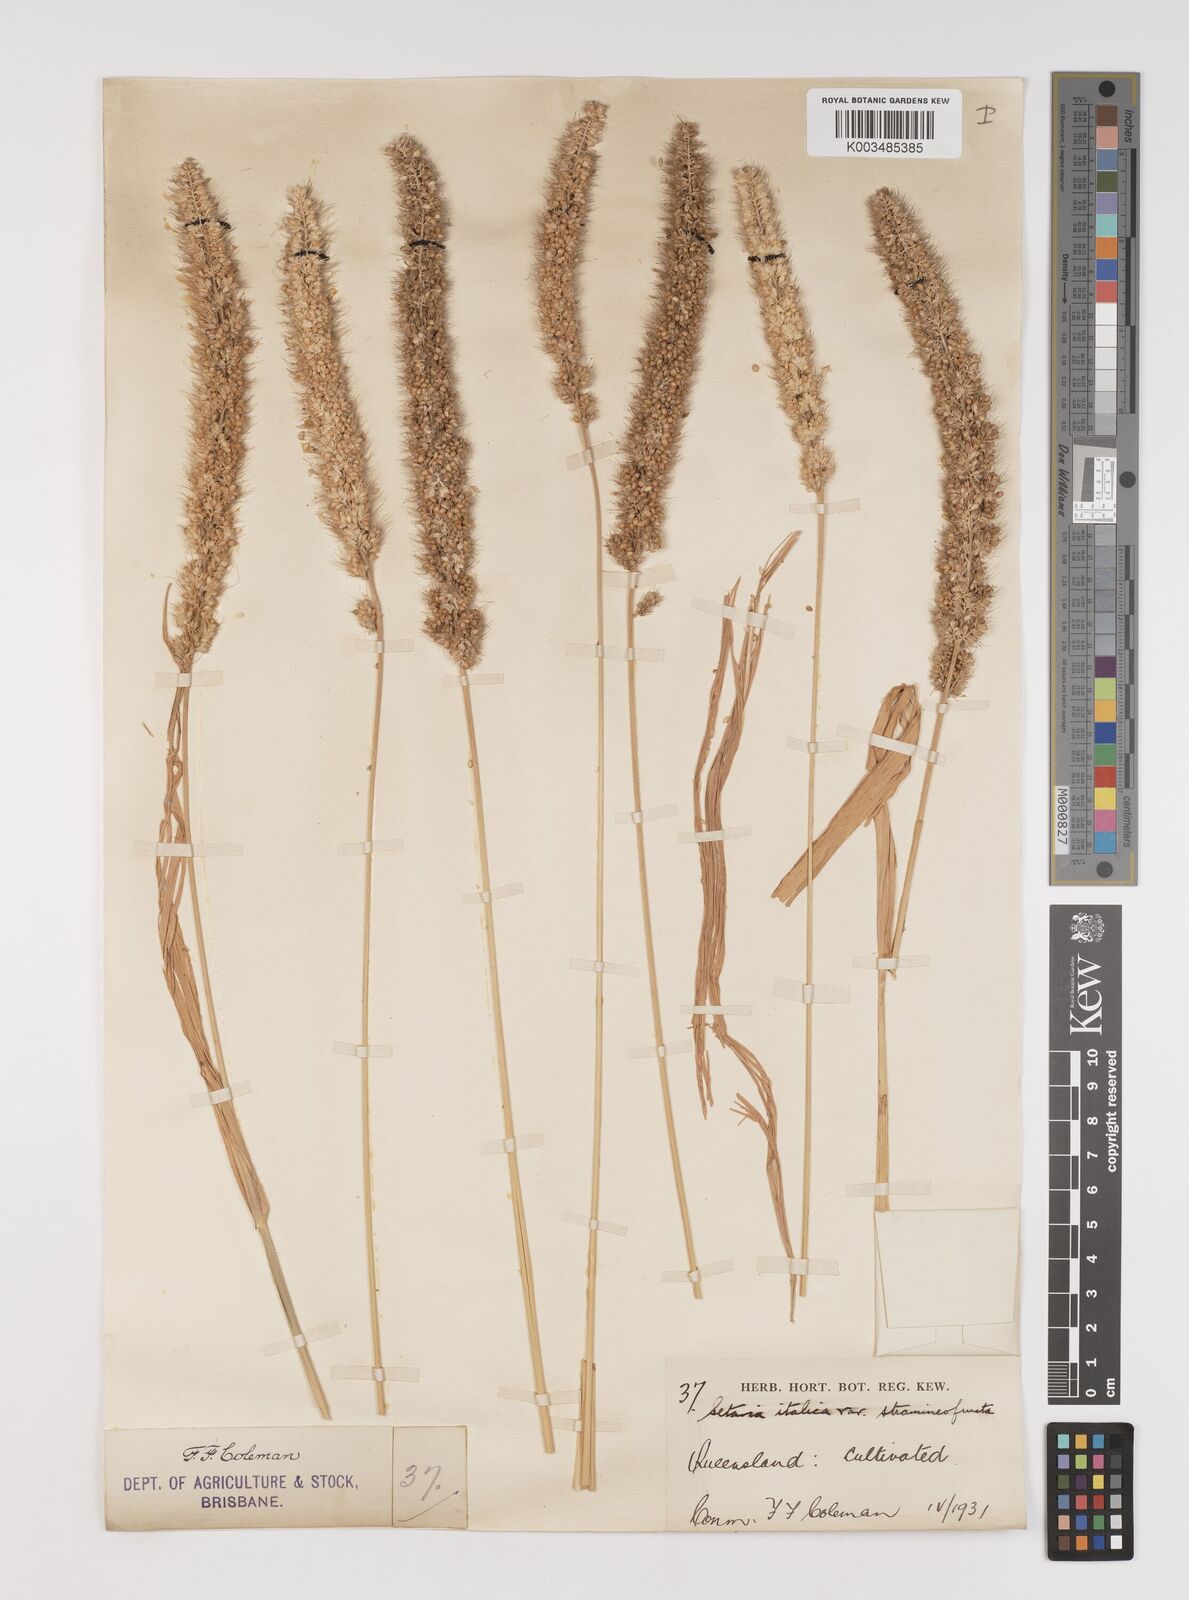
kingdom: Plantae
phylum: Tracheophyta
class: Liliopsida
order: Poales
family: Poaceae
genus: Setaria
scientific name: Setaria italica
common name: Foxtail bristle-grass
